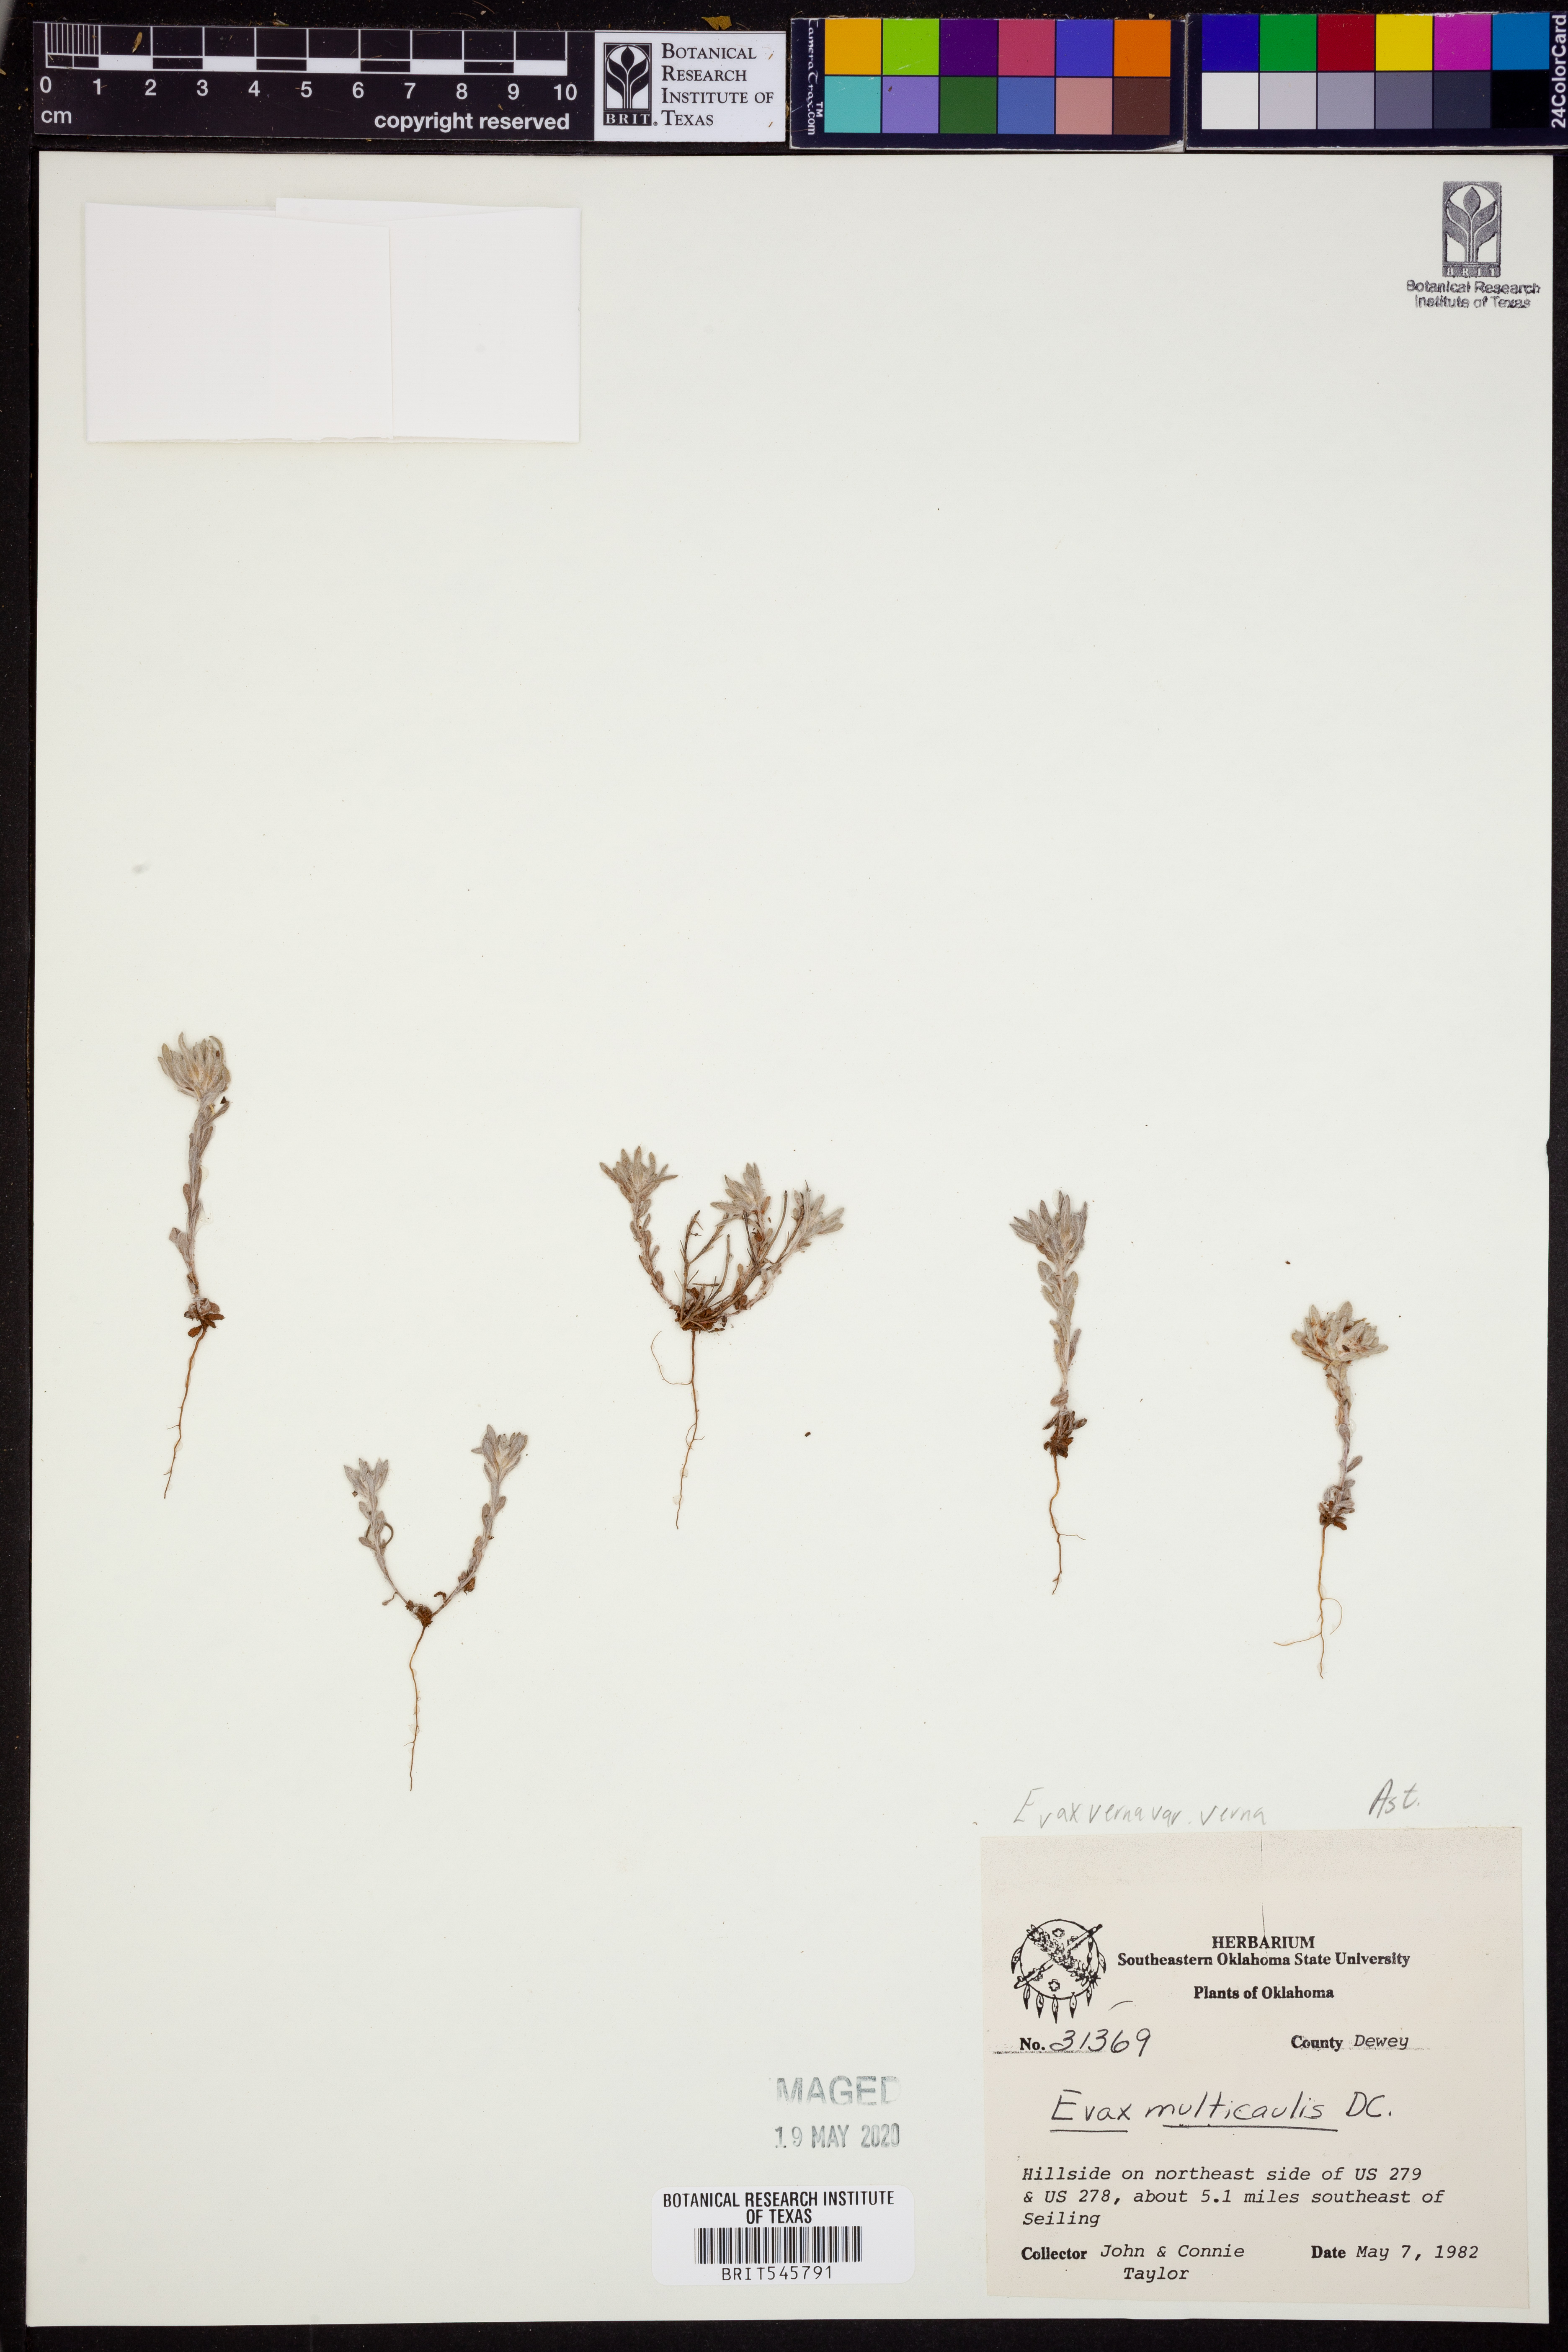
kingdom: Plantae
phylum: Tracheophyta
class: Magnoliopsida
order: Asterales
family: Asteraceae
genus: Diaperia
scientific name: Diaperia verna
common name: Many-stem rabbit-tobacco
